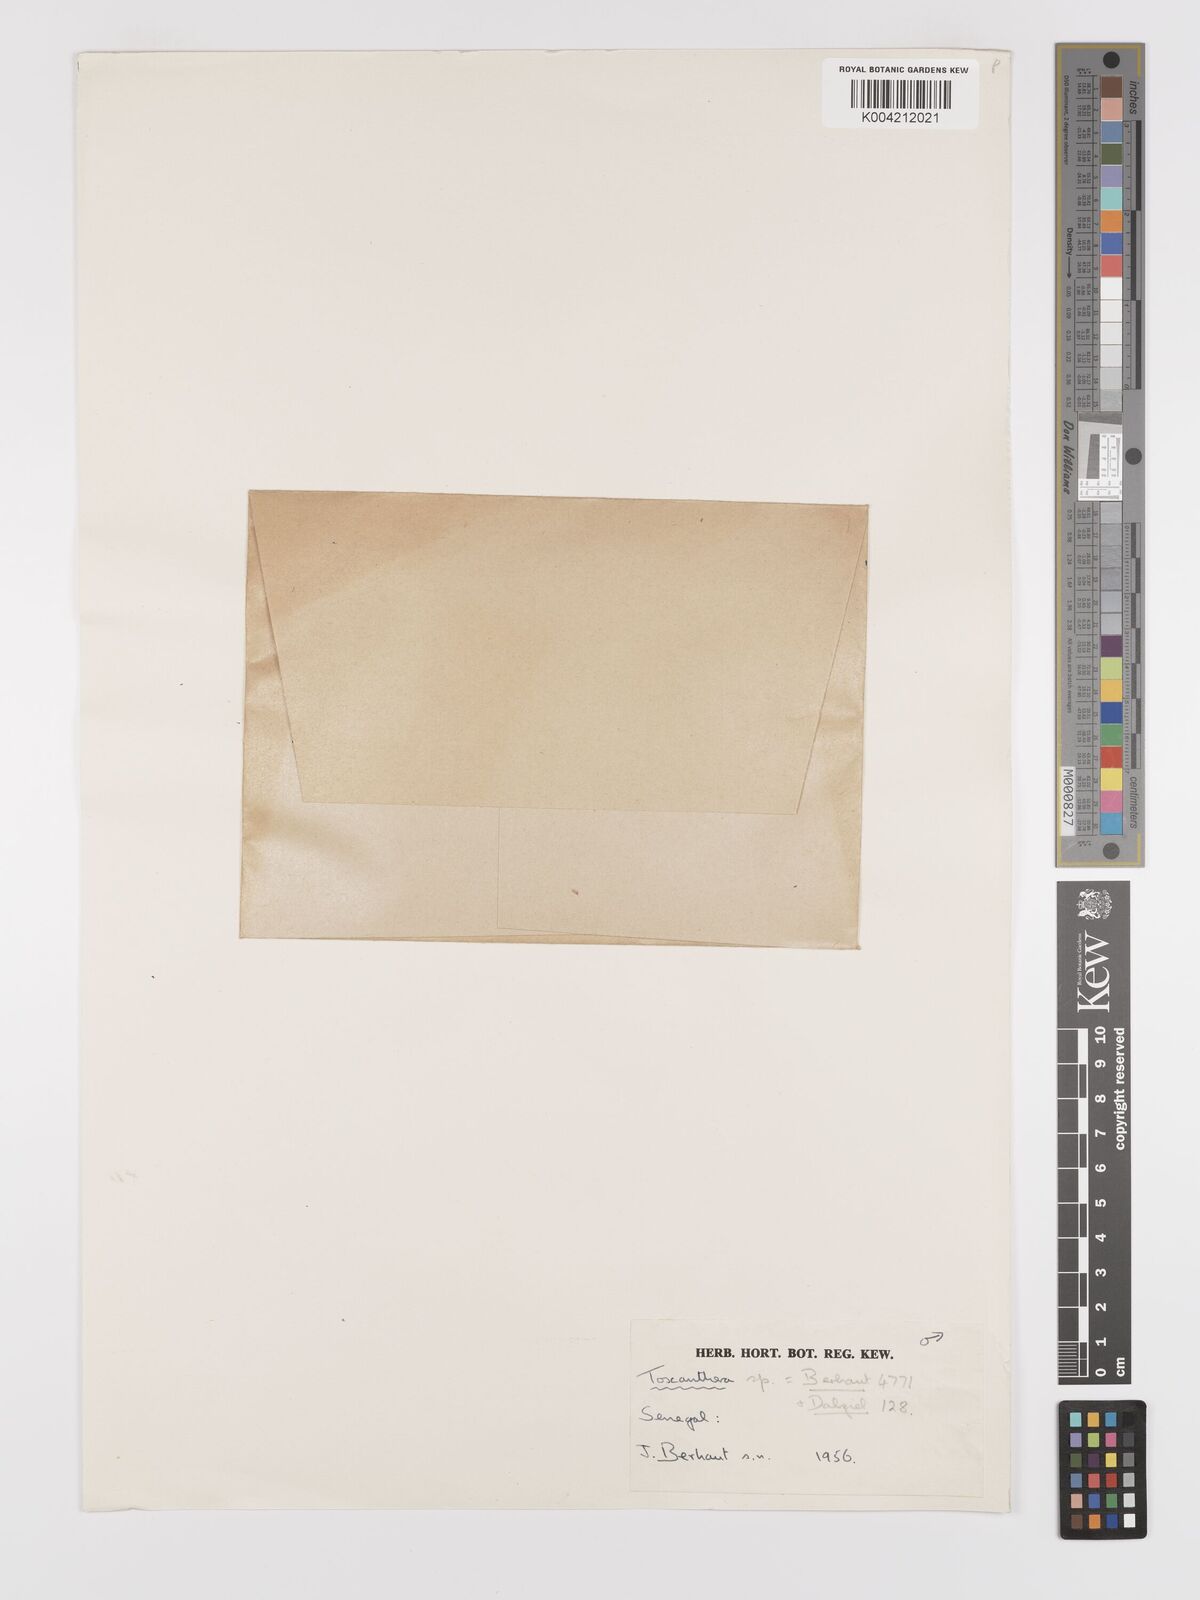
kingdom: Plantae
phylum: Tracheophyta
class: Magnoliopsida
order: Cucurbitales
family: Cucurbitaceae
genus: Kedrostis
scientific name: Kedrostis hirtella
